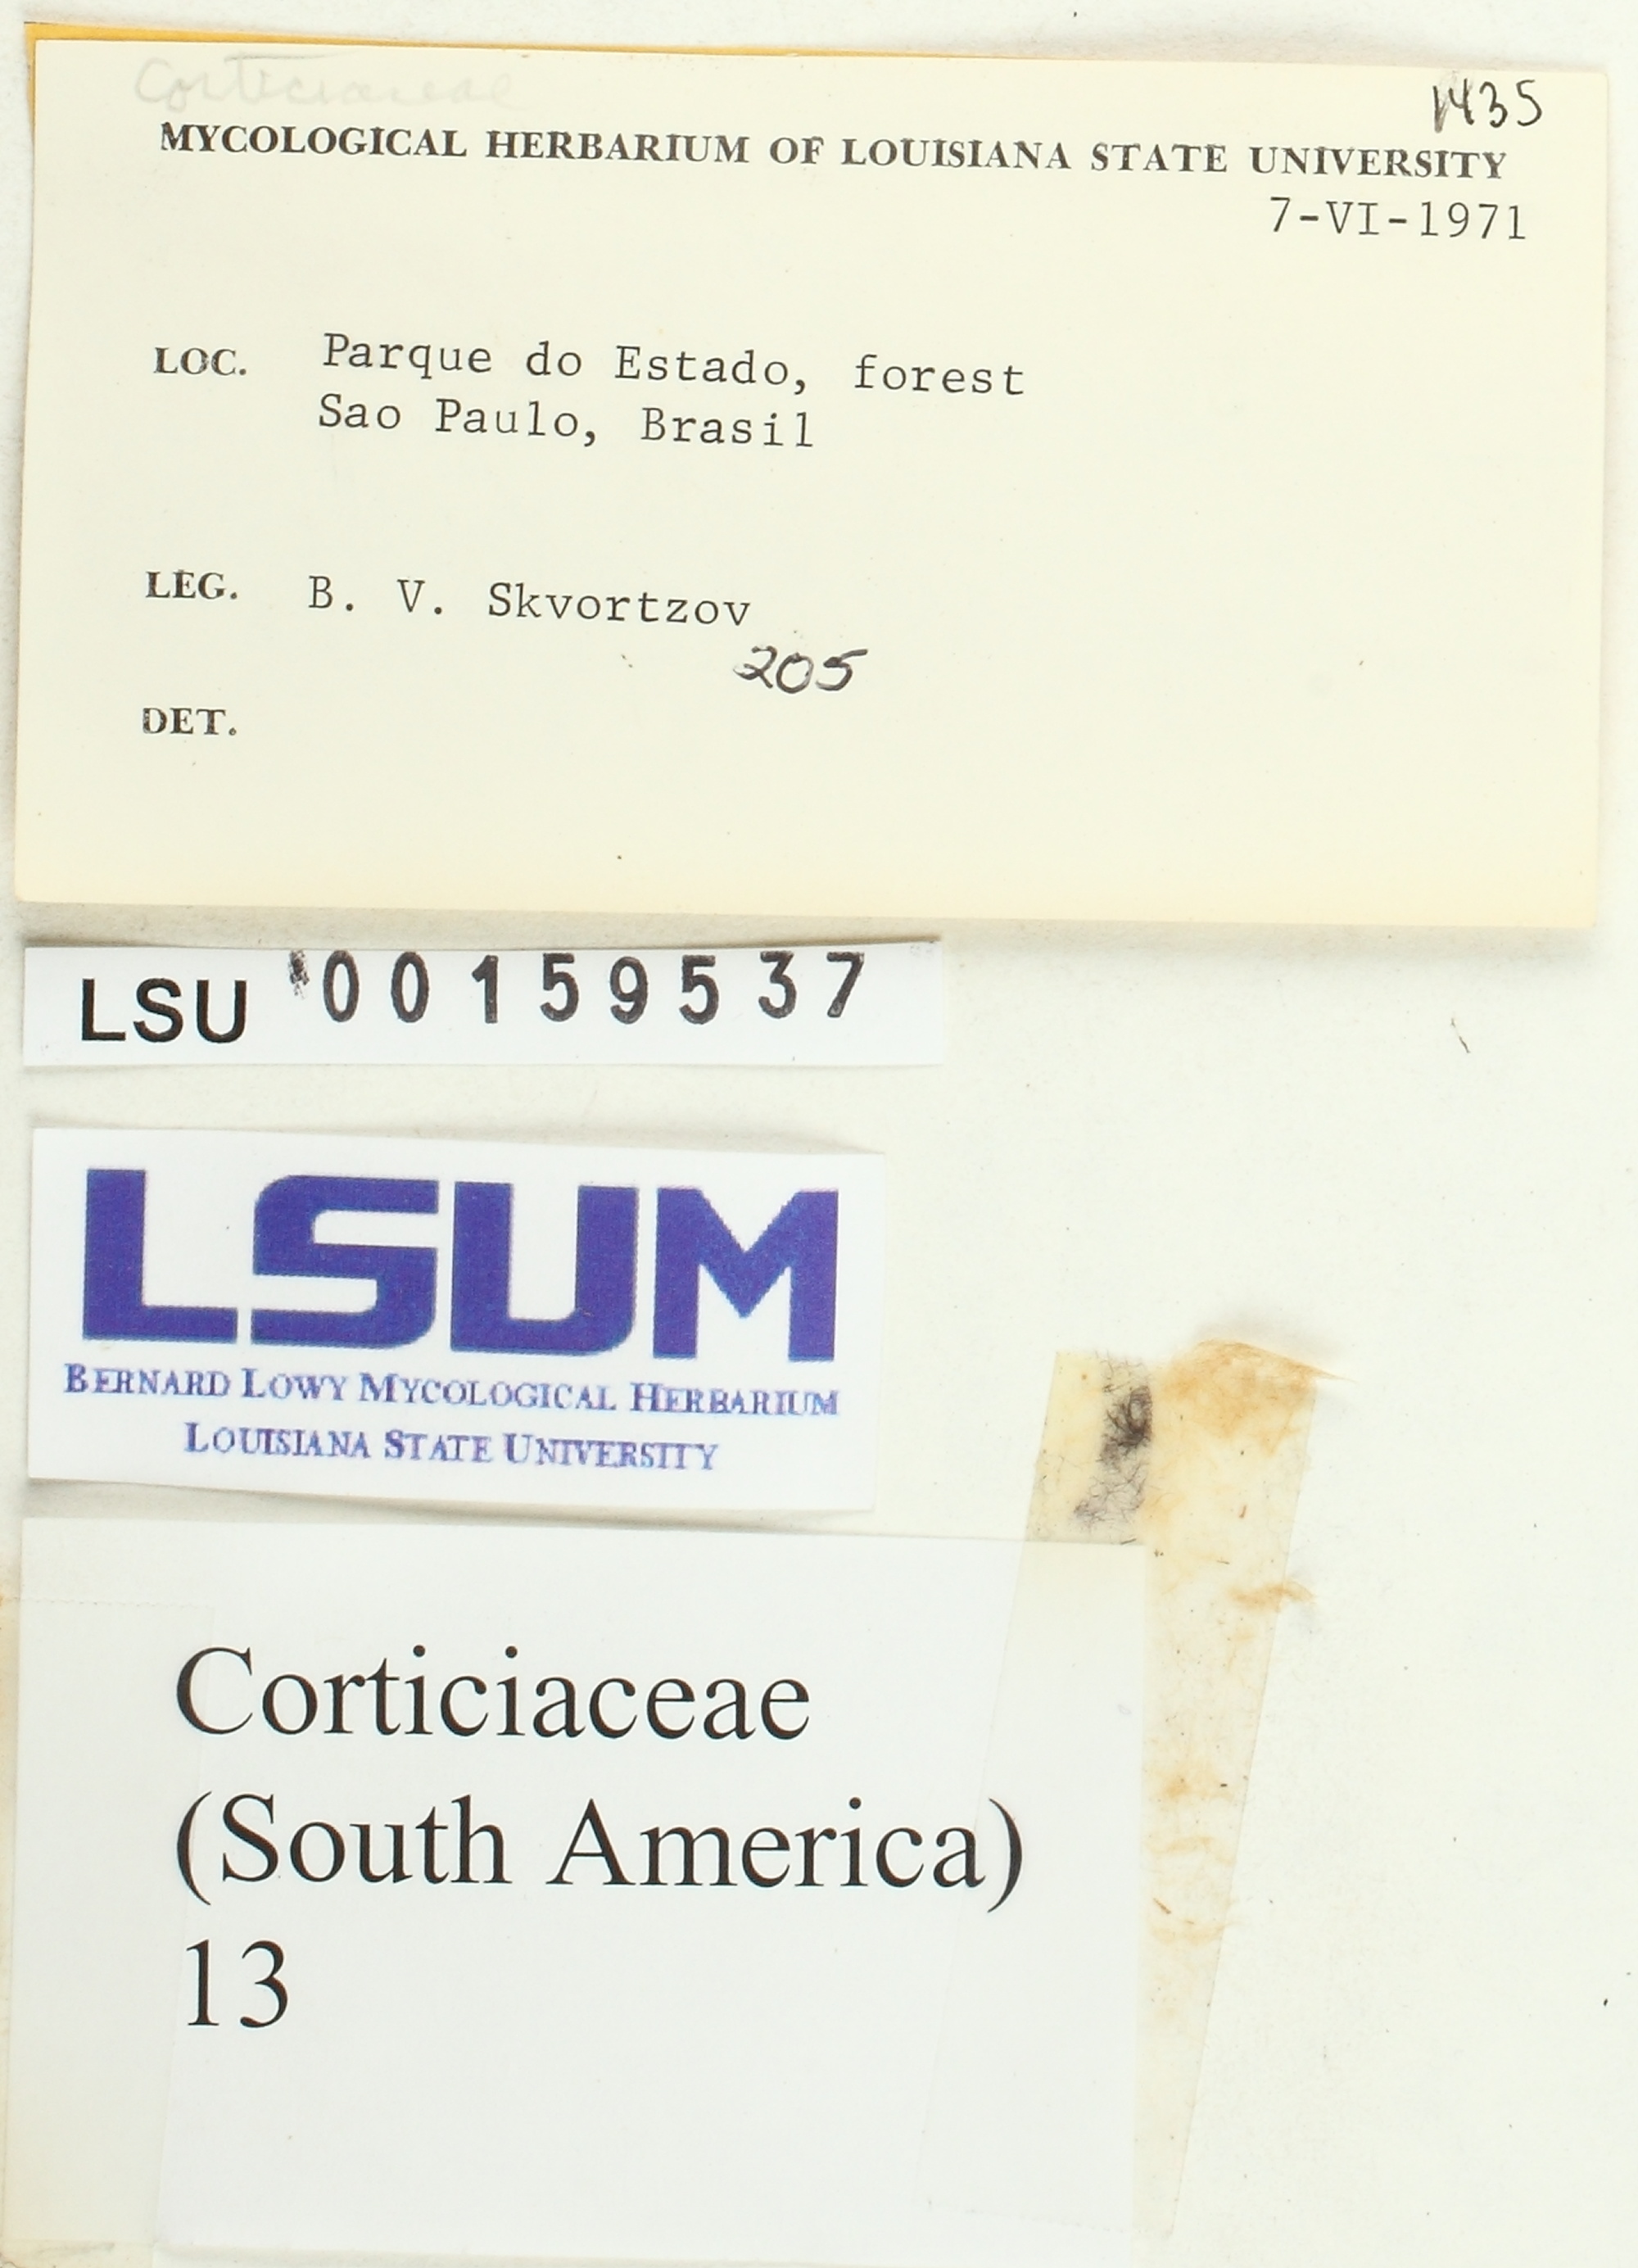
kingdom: Fungi
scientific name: Fungi
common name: Fungi
